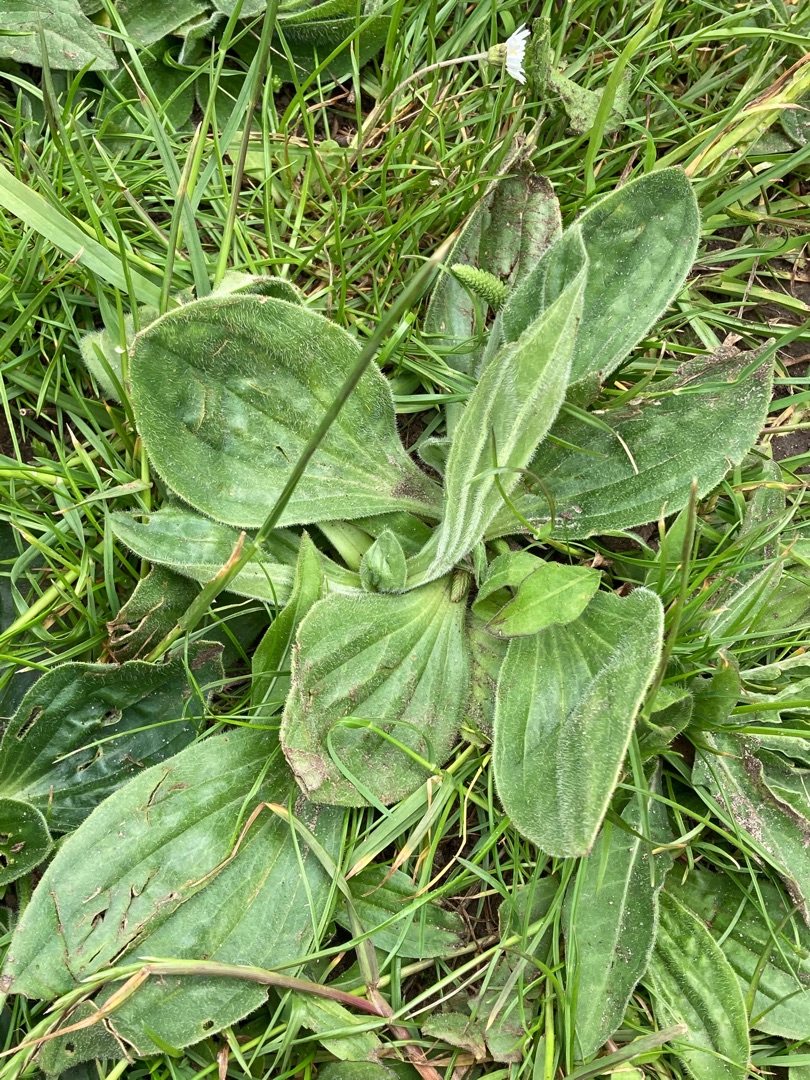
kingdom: Plantae
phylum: Tracheophyta
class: Magnoliopsida
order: Lamiales
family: Plantaginaceae
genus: Plantago
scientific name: Plantago media
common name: Dunet vejbred
